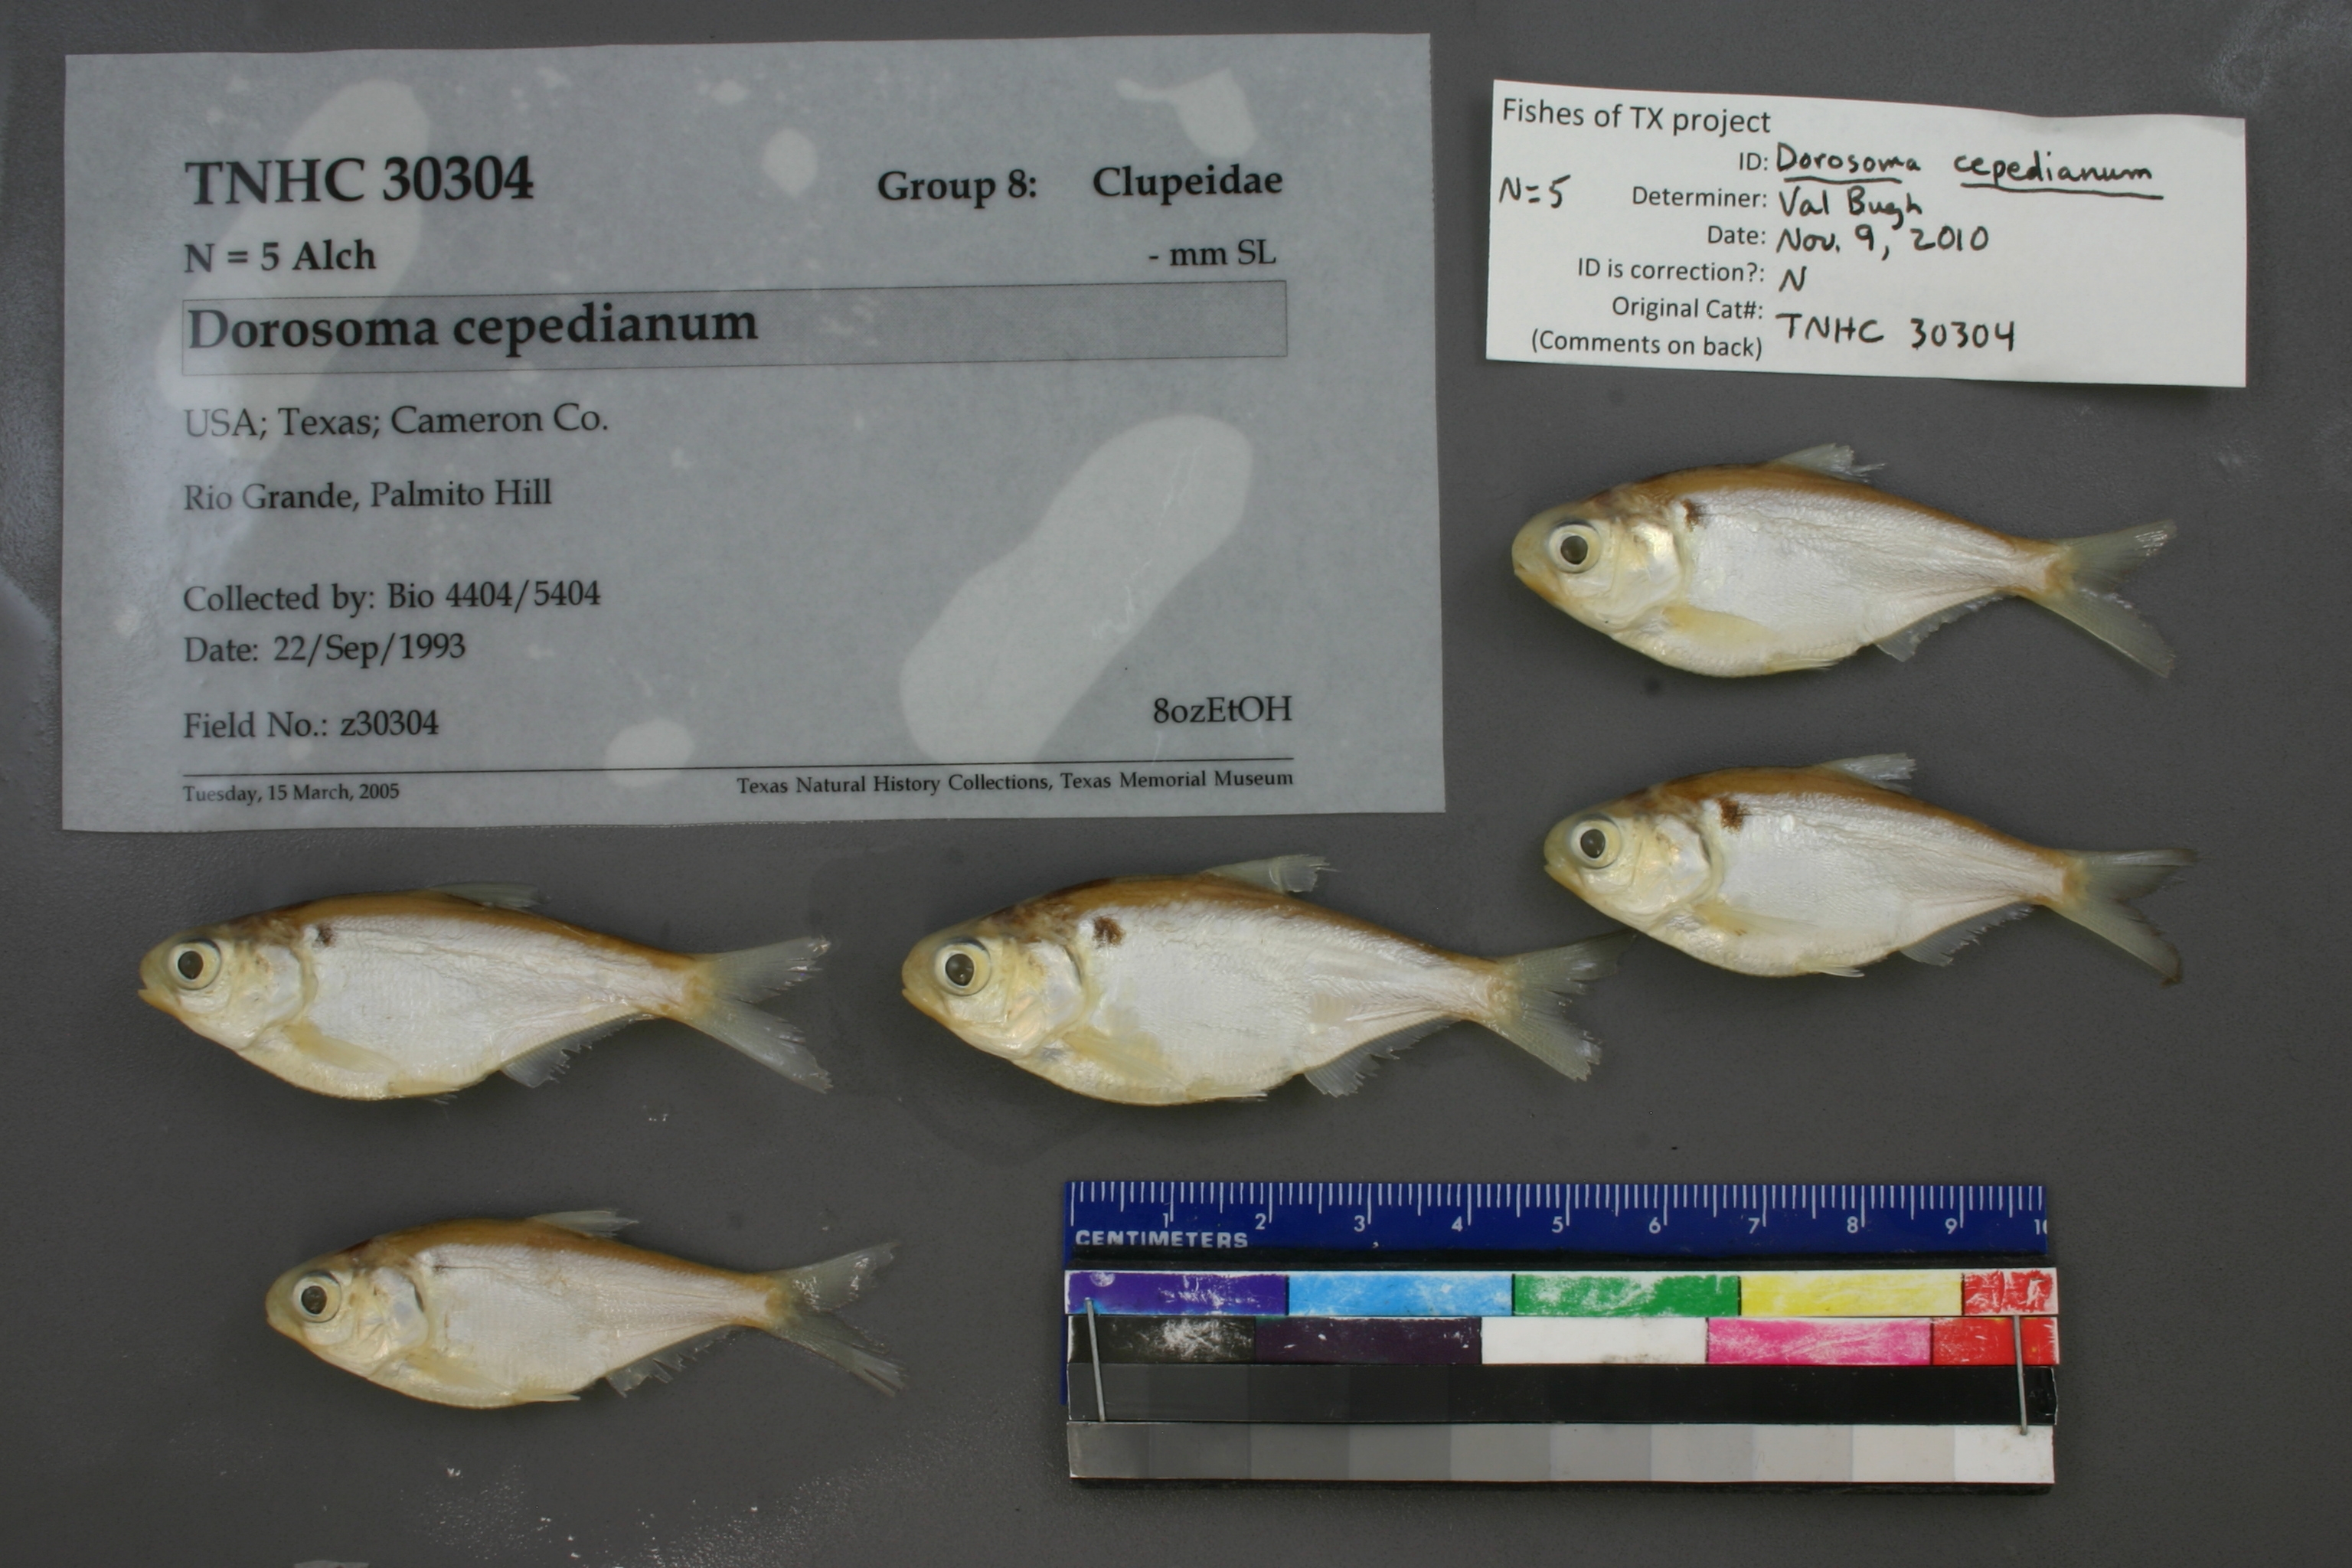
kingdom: Animalia
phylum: Chordata
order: Clupeiformes
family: Clupeidae
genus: Dorosoma
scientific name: Dorosoma cepedianum
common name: Gizzard shad
